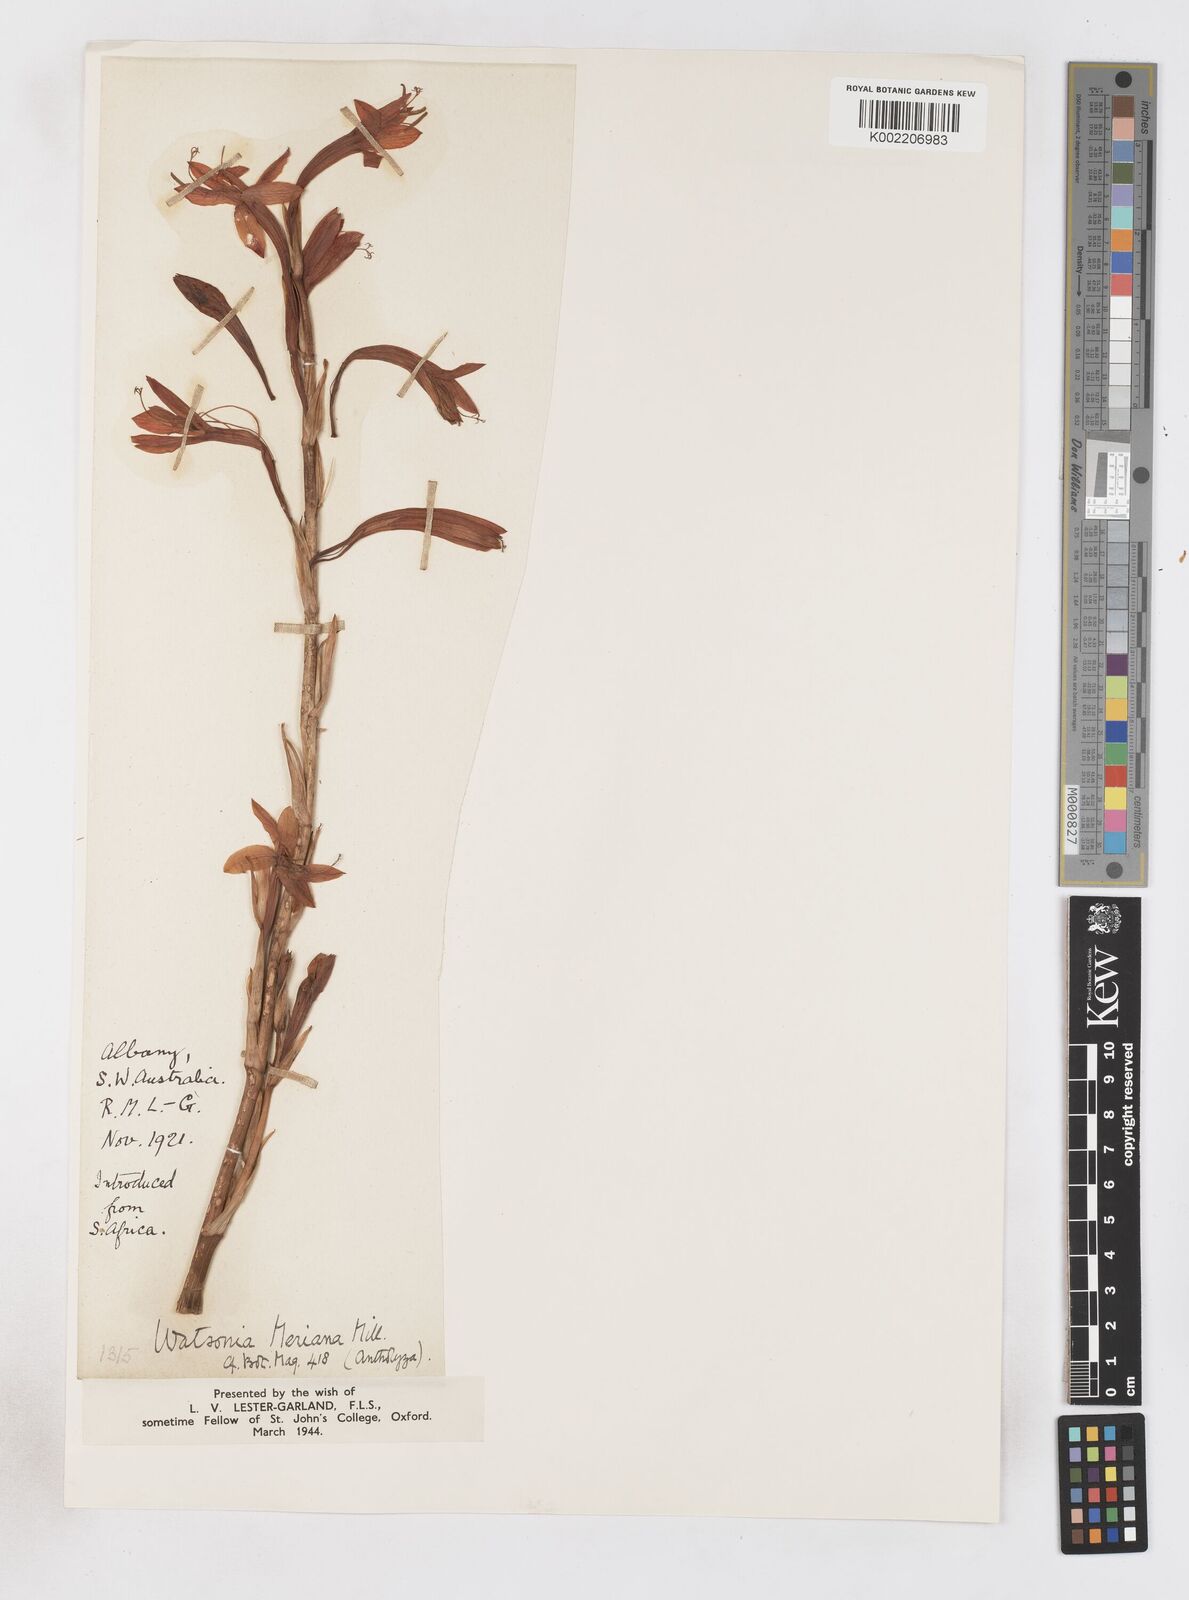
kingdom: Plantae
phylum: Tracheophyta
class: Liliopsida
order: Asparagales
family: Iridaceae
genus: Pillansia
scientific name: Pillansia
